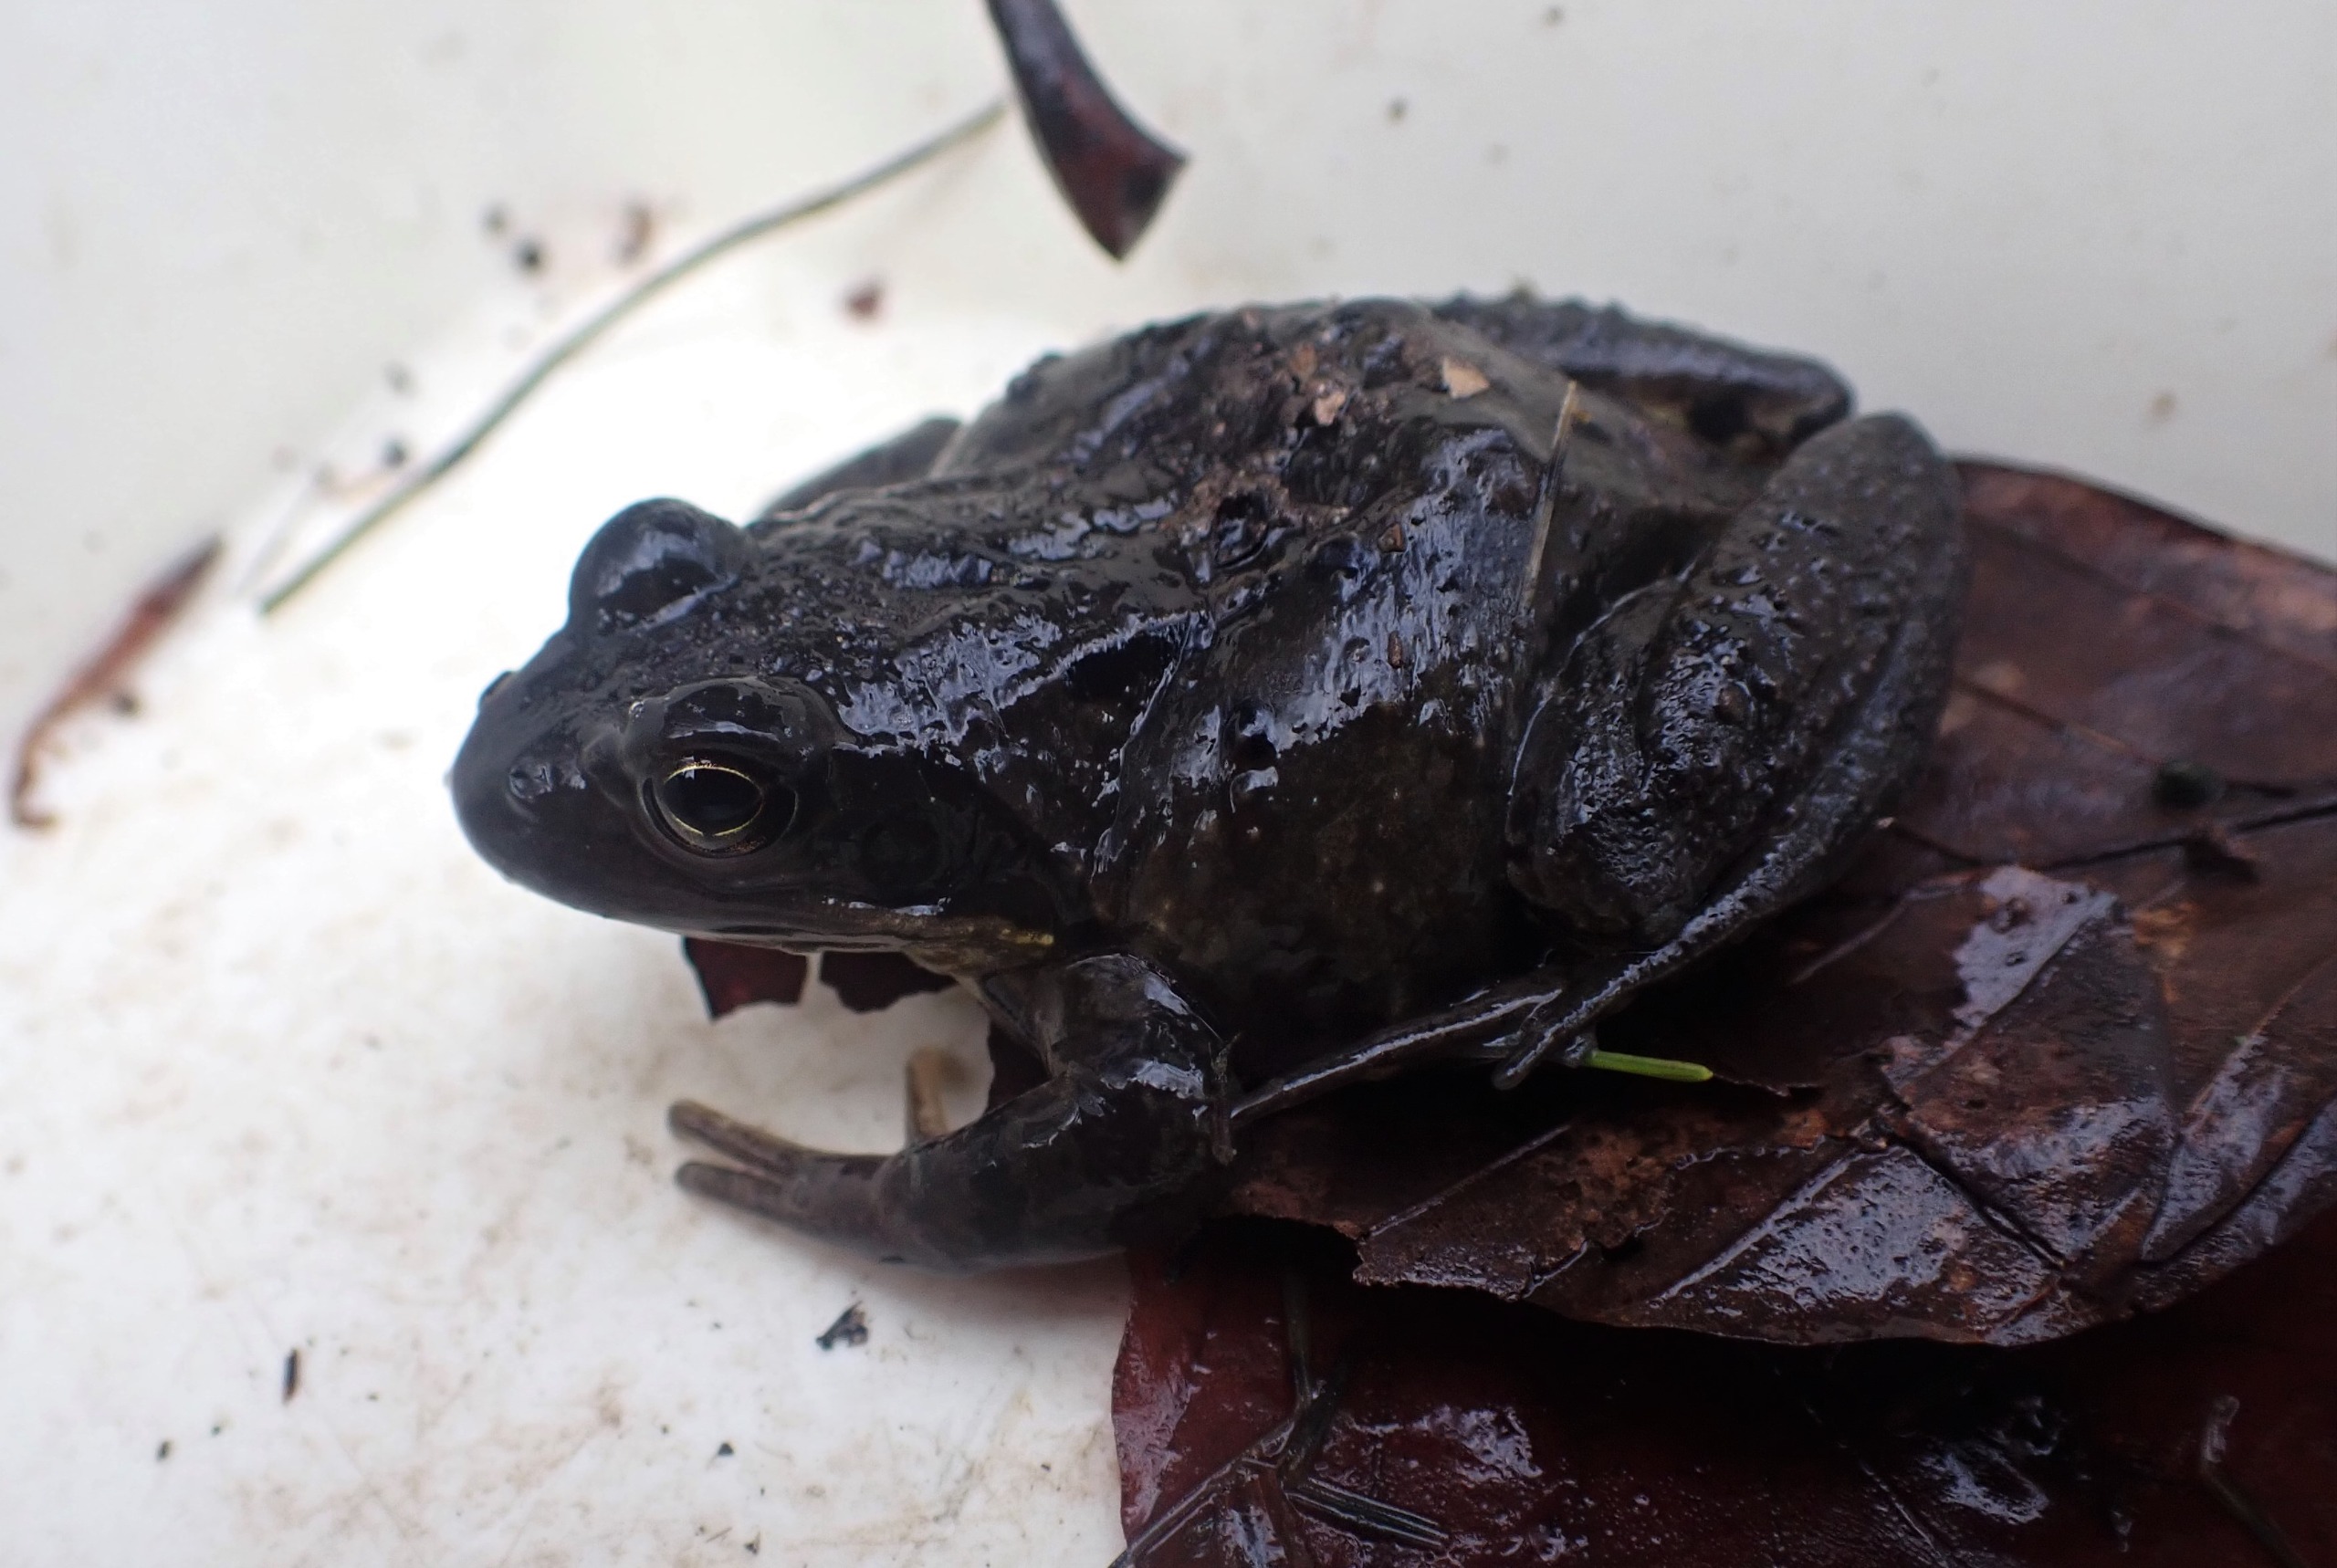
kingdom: Animalia
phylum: Chordata
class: Amphibia
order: Anura
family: Ranidae
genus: Rana
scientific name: Rana temporaria
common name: Butsnudet frø
